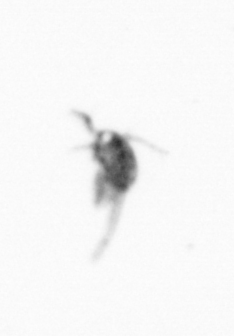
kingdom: Animalia
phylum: Arthropoda
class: Copepoda
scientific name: Copepoda
